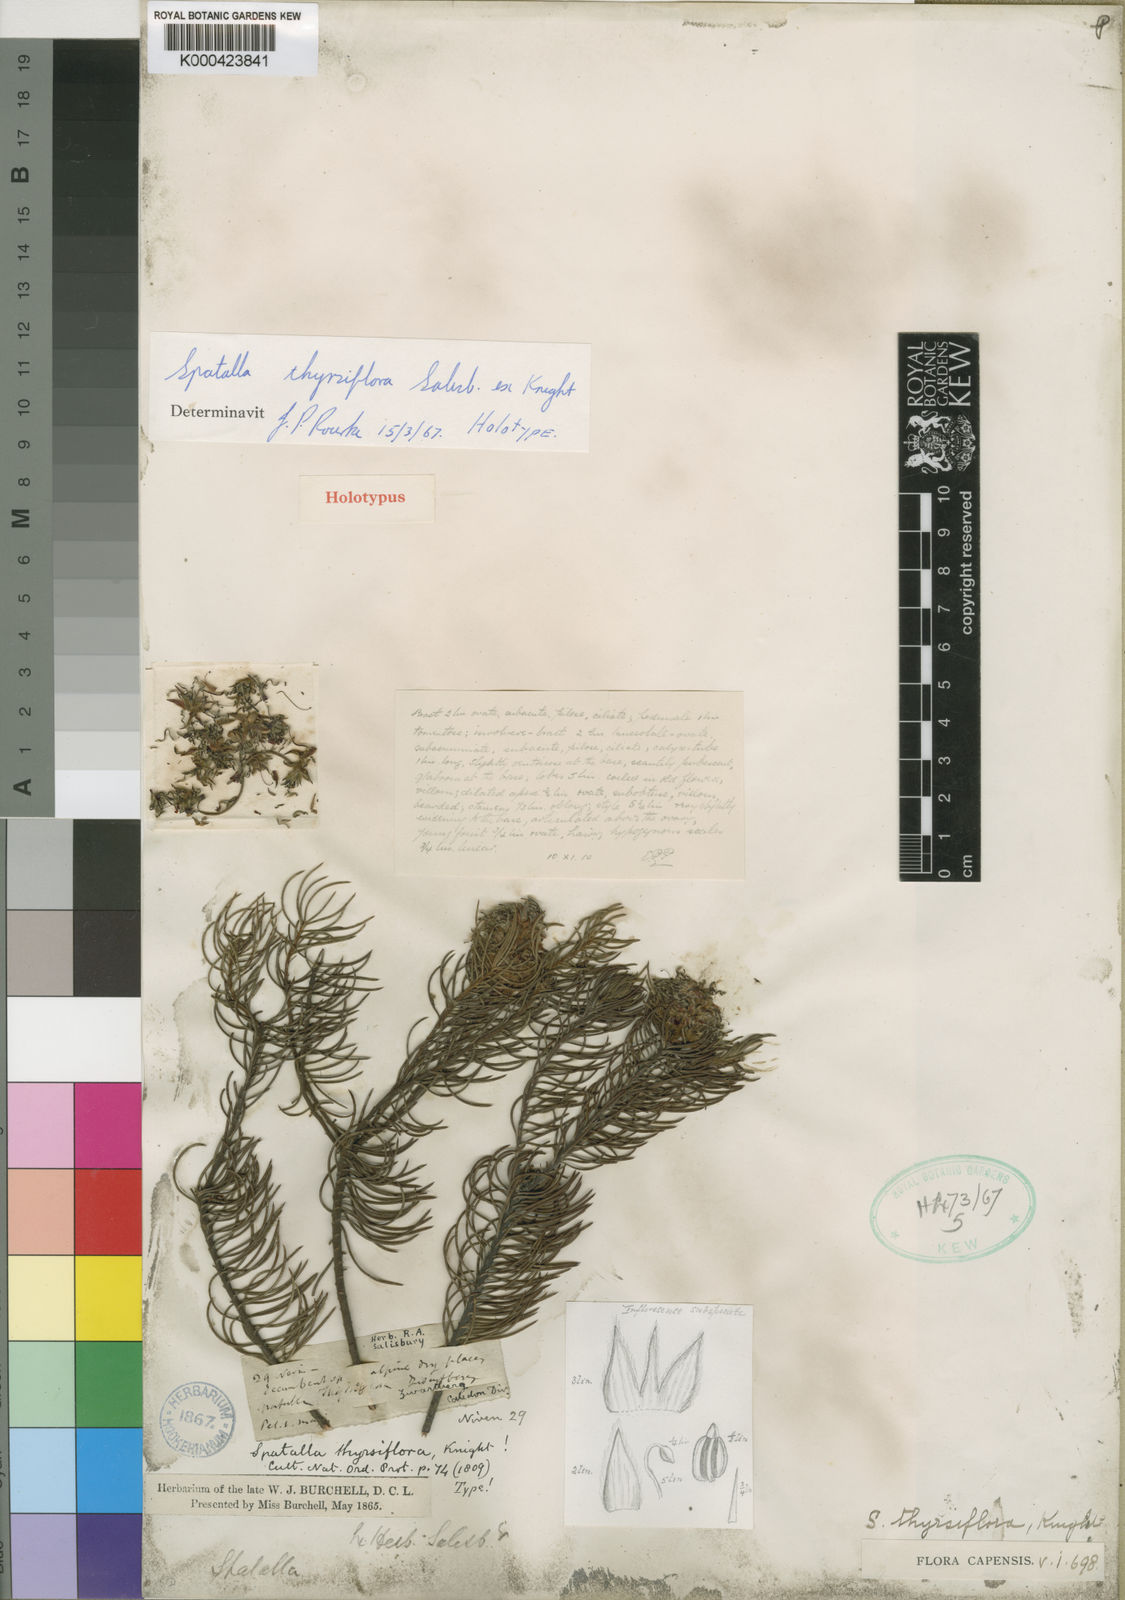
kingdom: Plantae
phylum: Tracheophyta
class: Magnoliopsida
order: Proteales
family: Proteaceae
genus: Spatalla
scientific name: Spatalla thyrsiflora
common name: Swan-neck spoon
